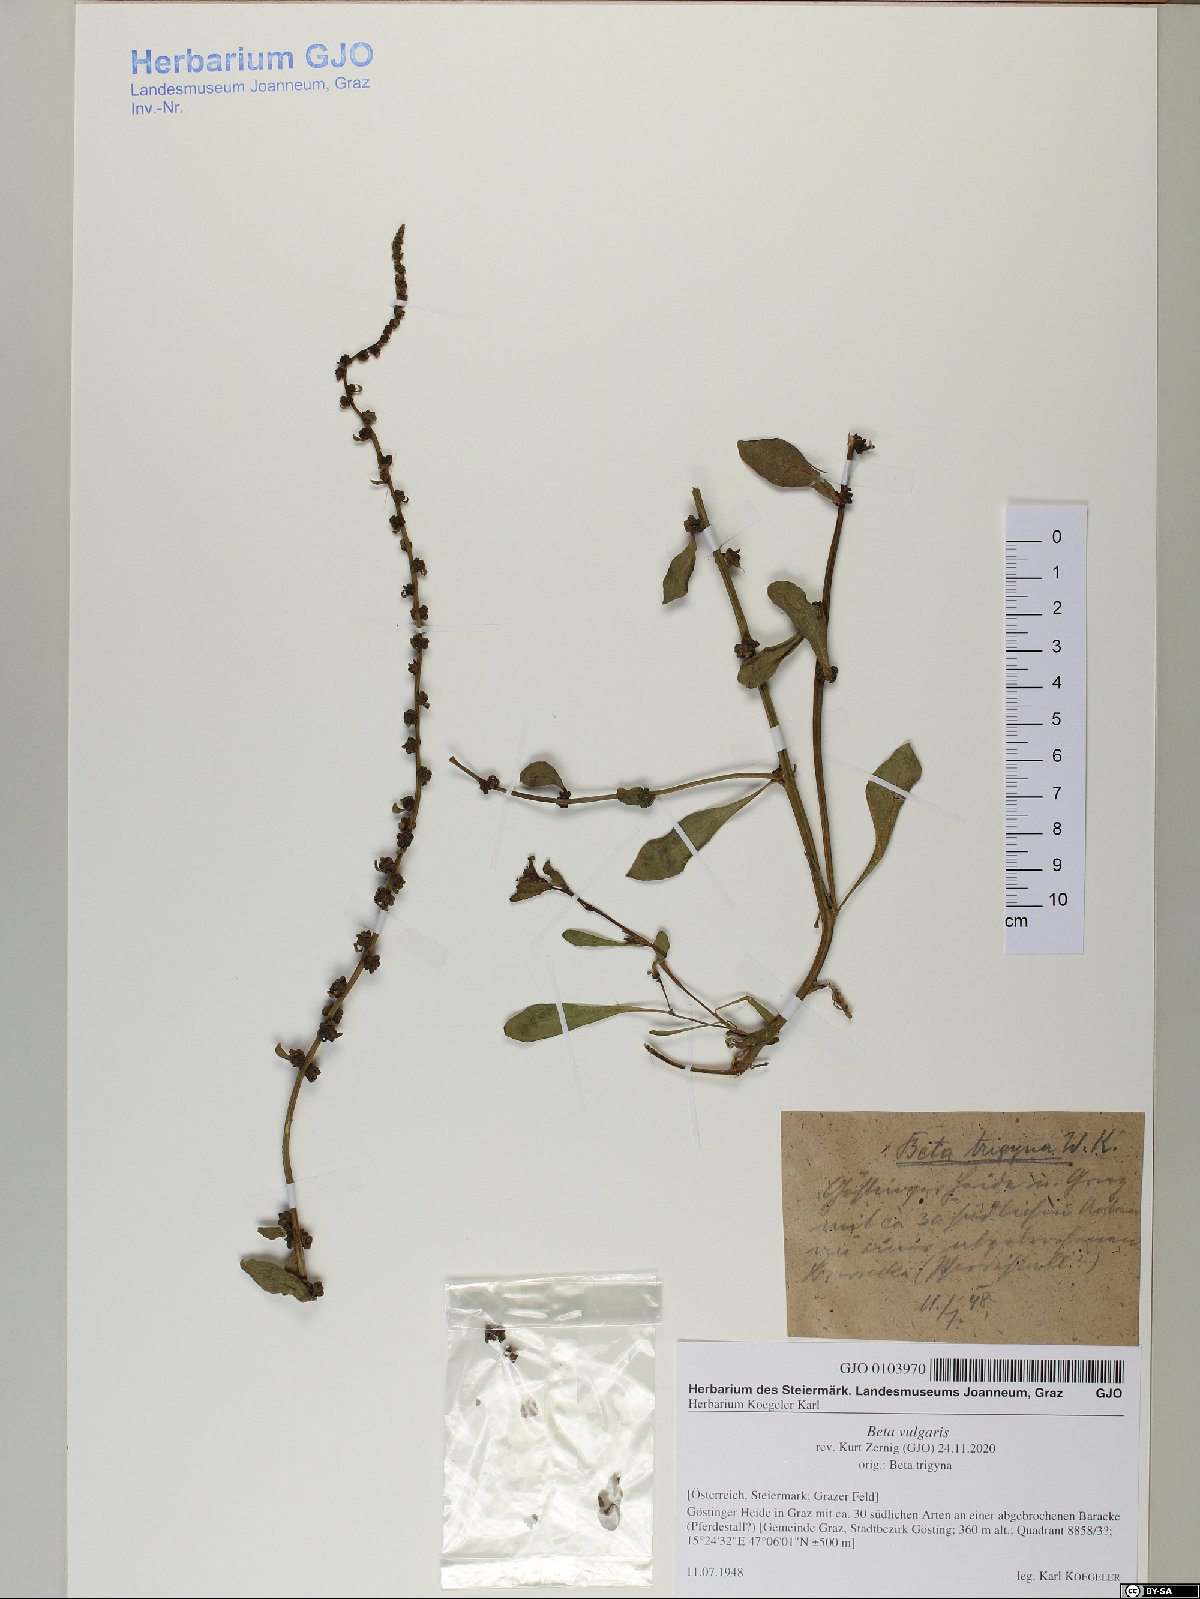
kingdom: Plantae
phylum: Tracheophyta
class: Magnoliopsida
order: Caryophyllales
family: Amaranthaceae
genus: Beta
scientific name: Beta vulgaris
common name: Beet
